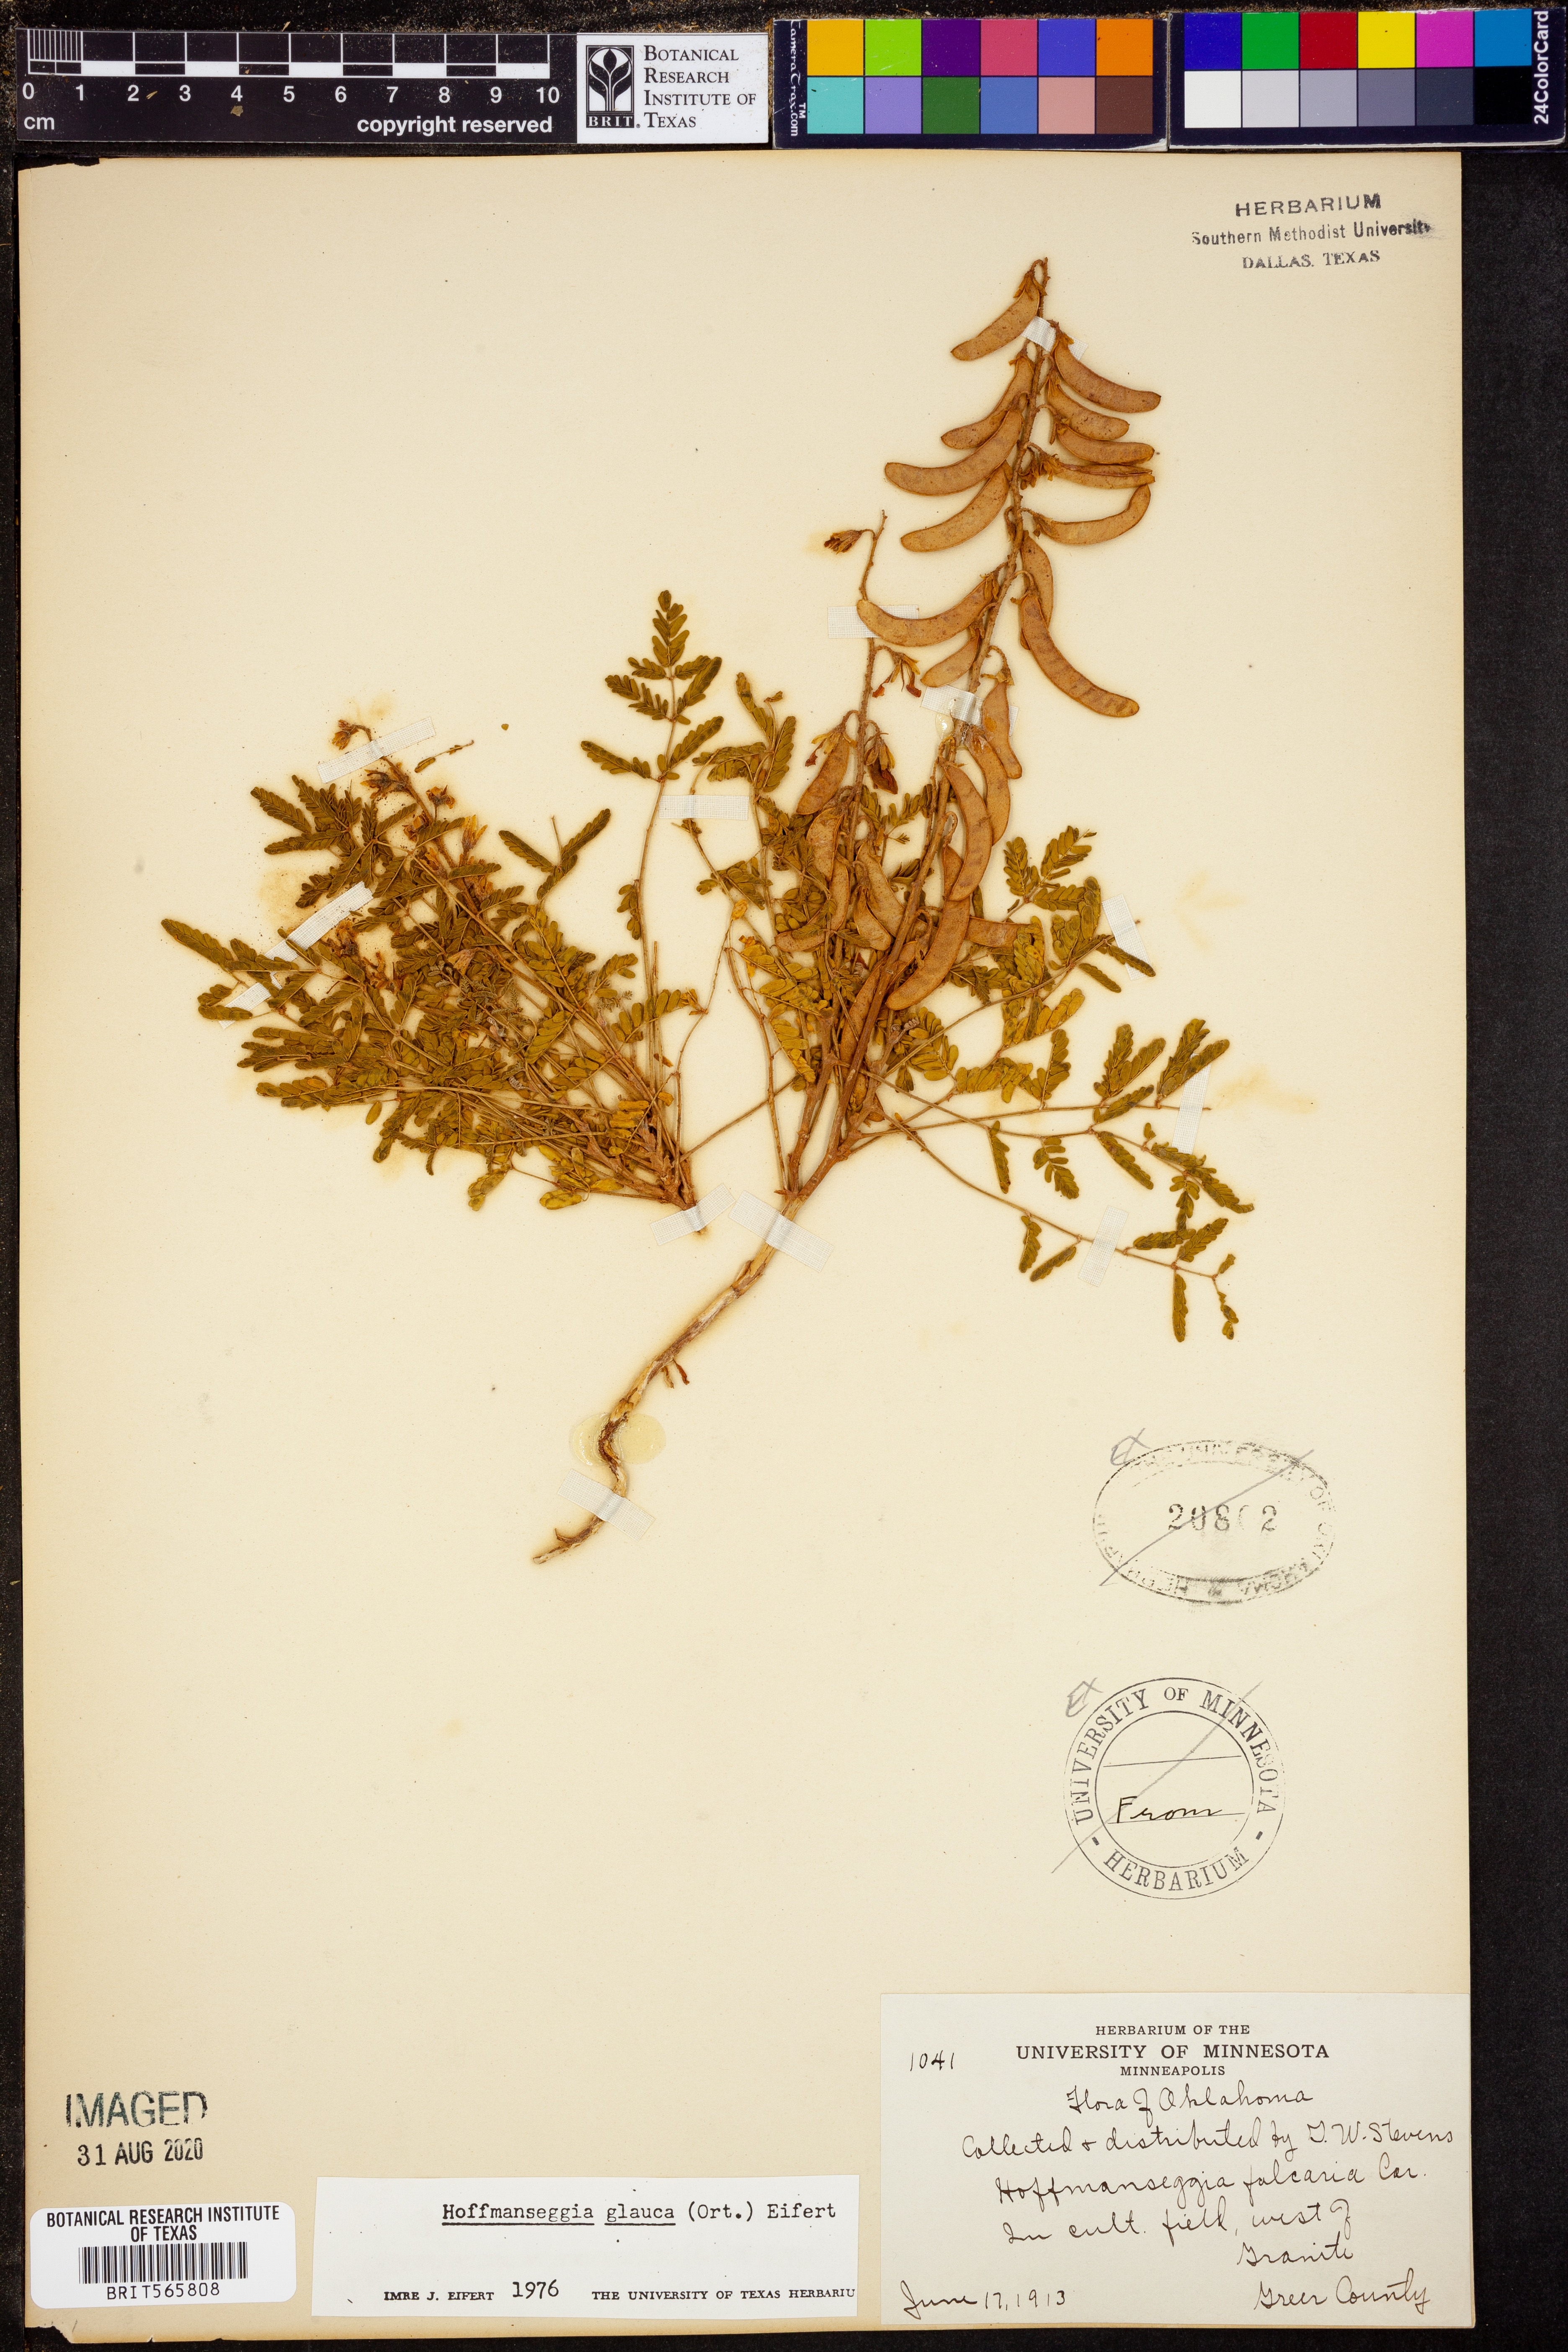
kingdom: Plantae
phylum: Tracheophyta
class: Magnoliopsida
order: Fabales
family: Fabaceae
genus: Hoffmannseggia
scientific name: Hoffmannseggia glauca
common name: Pignut
